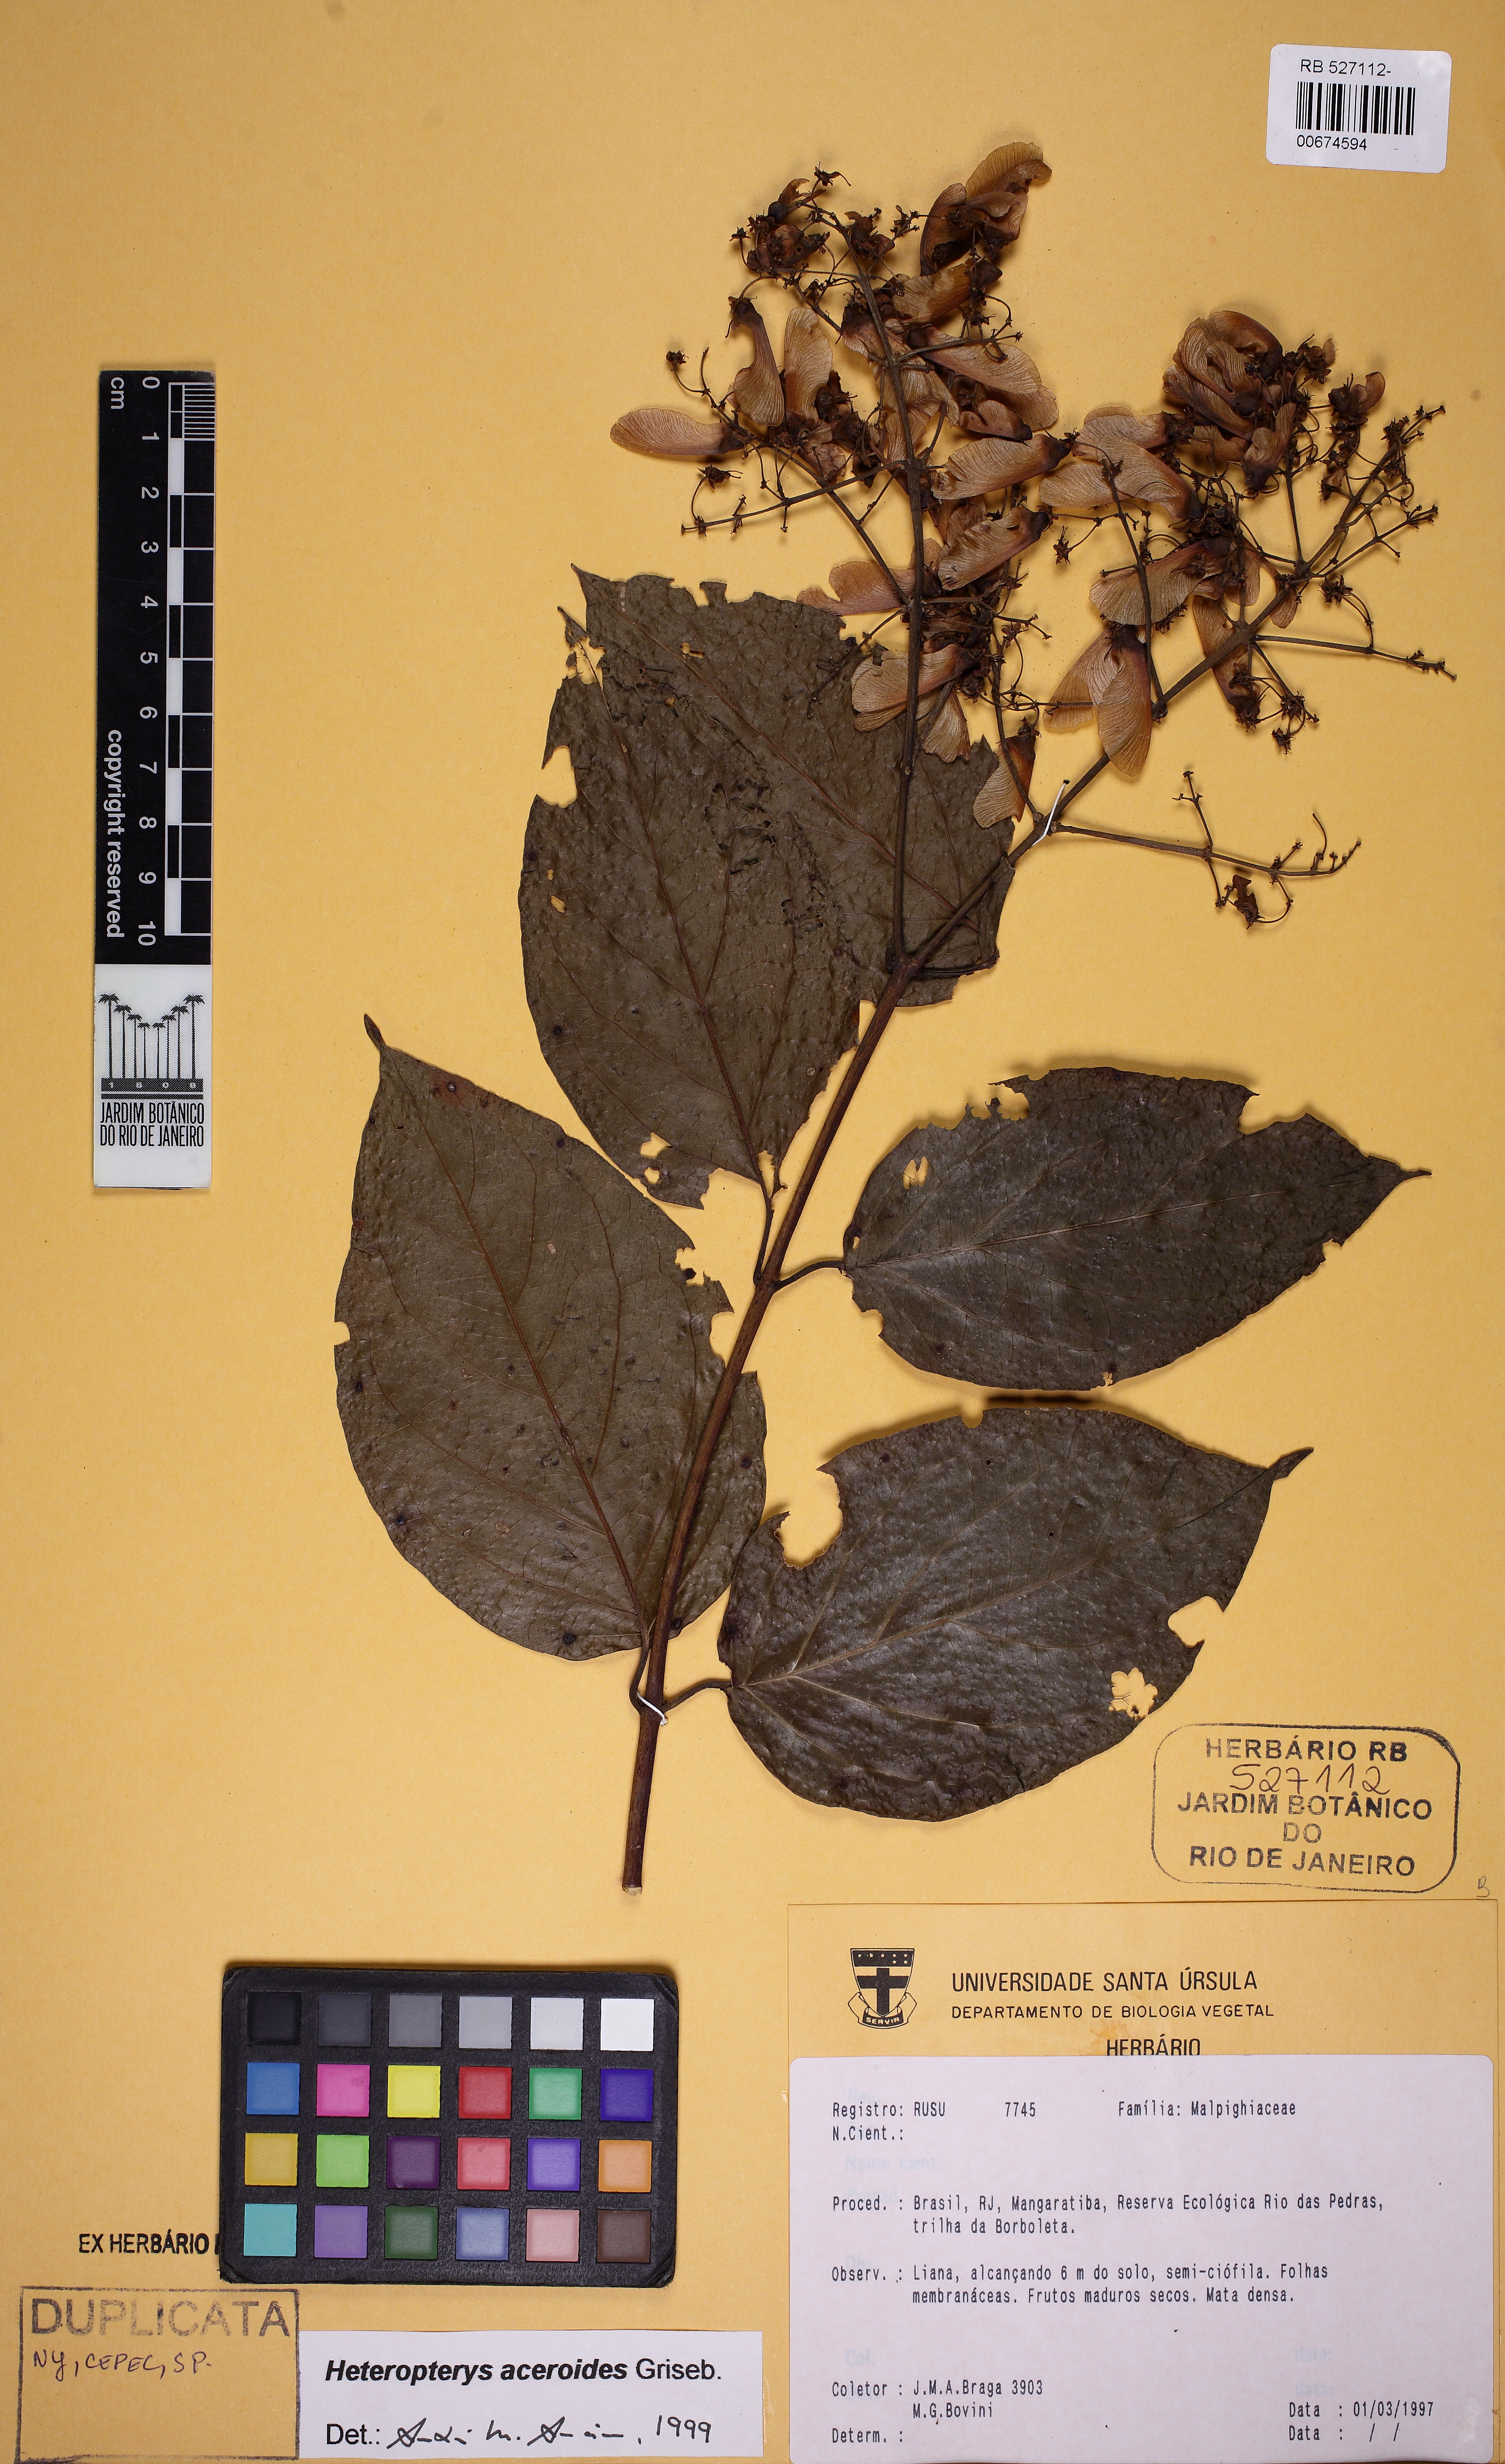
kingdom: Plantae
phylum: Tracheophyta
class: Magnoliopsida
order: Malpighiales
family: Malpighiaceae
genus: Heteropterys
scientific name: Heteropterys intermedia
